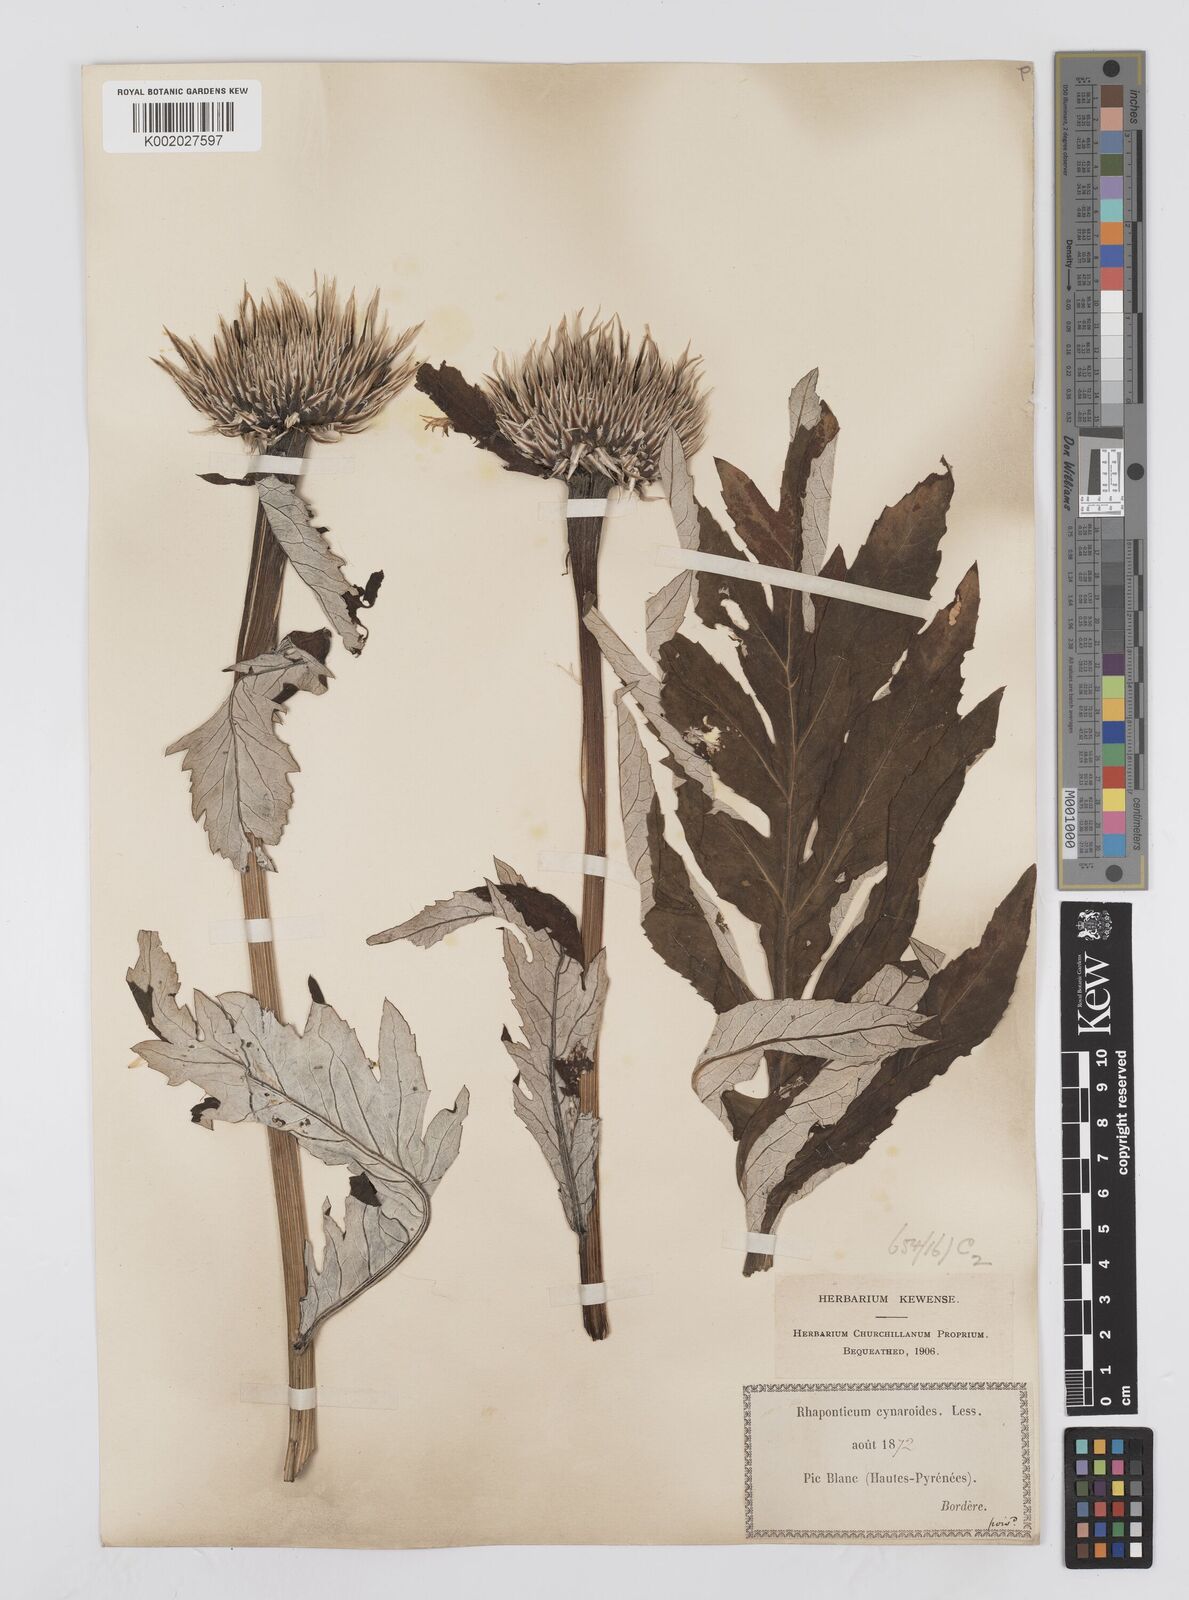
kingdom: Plantae
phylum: Tracheophyta
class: Magnoliopsida
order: Asterales
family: Asteraceae
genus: Leuzea
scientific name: Leuzea centauroides
